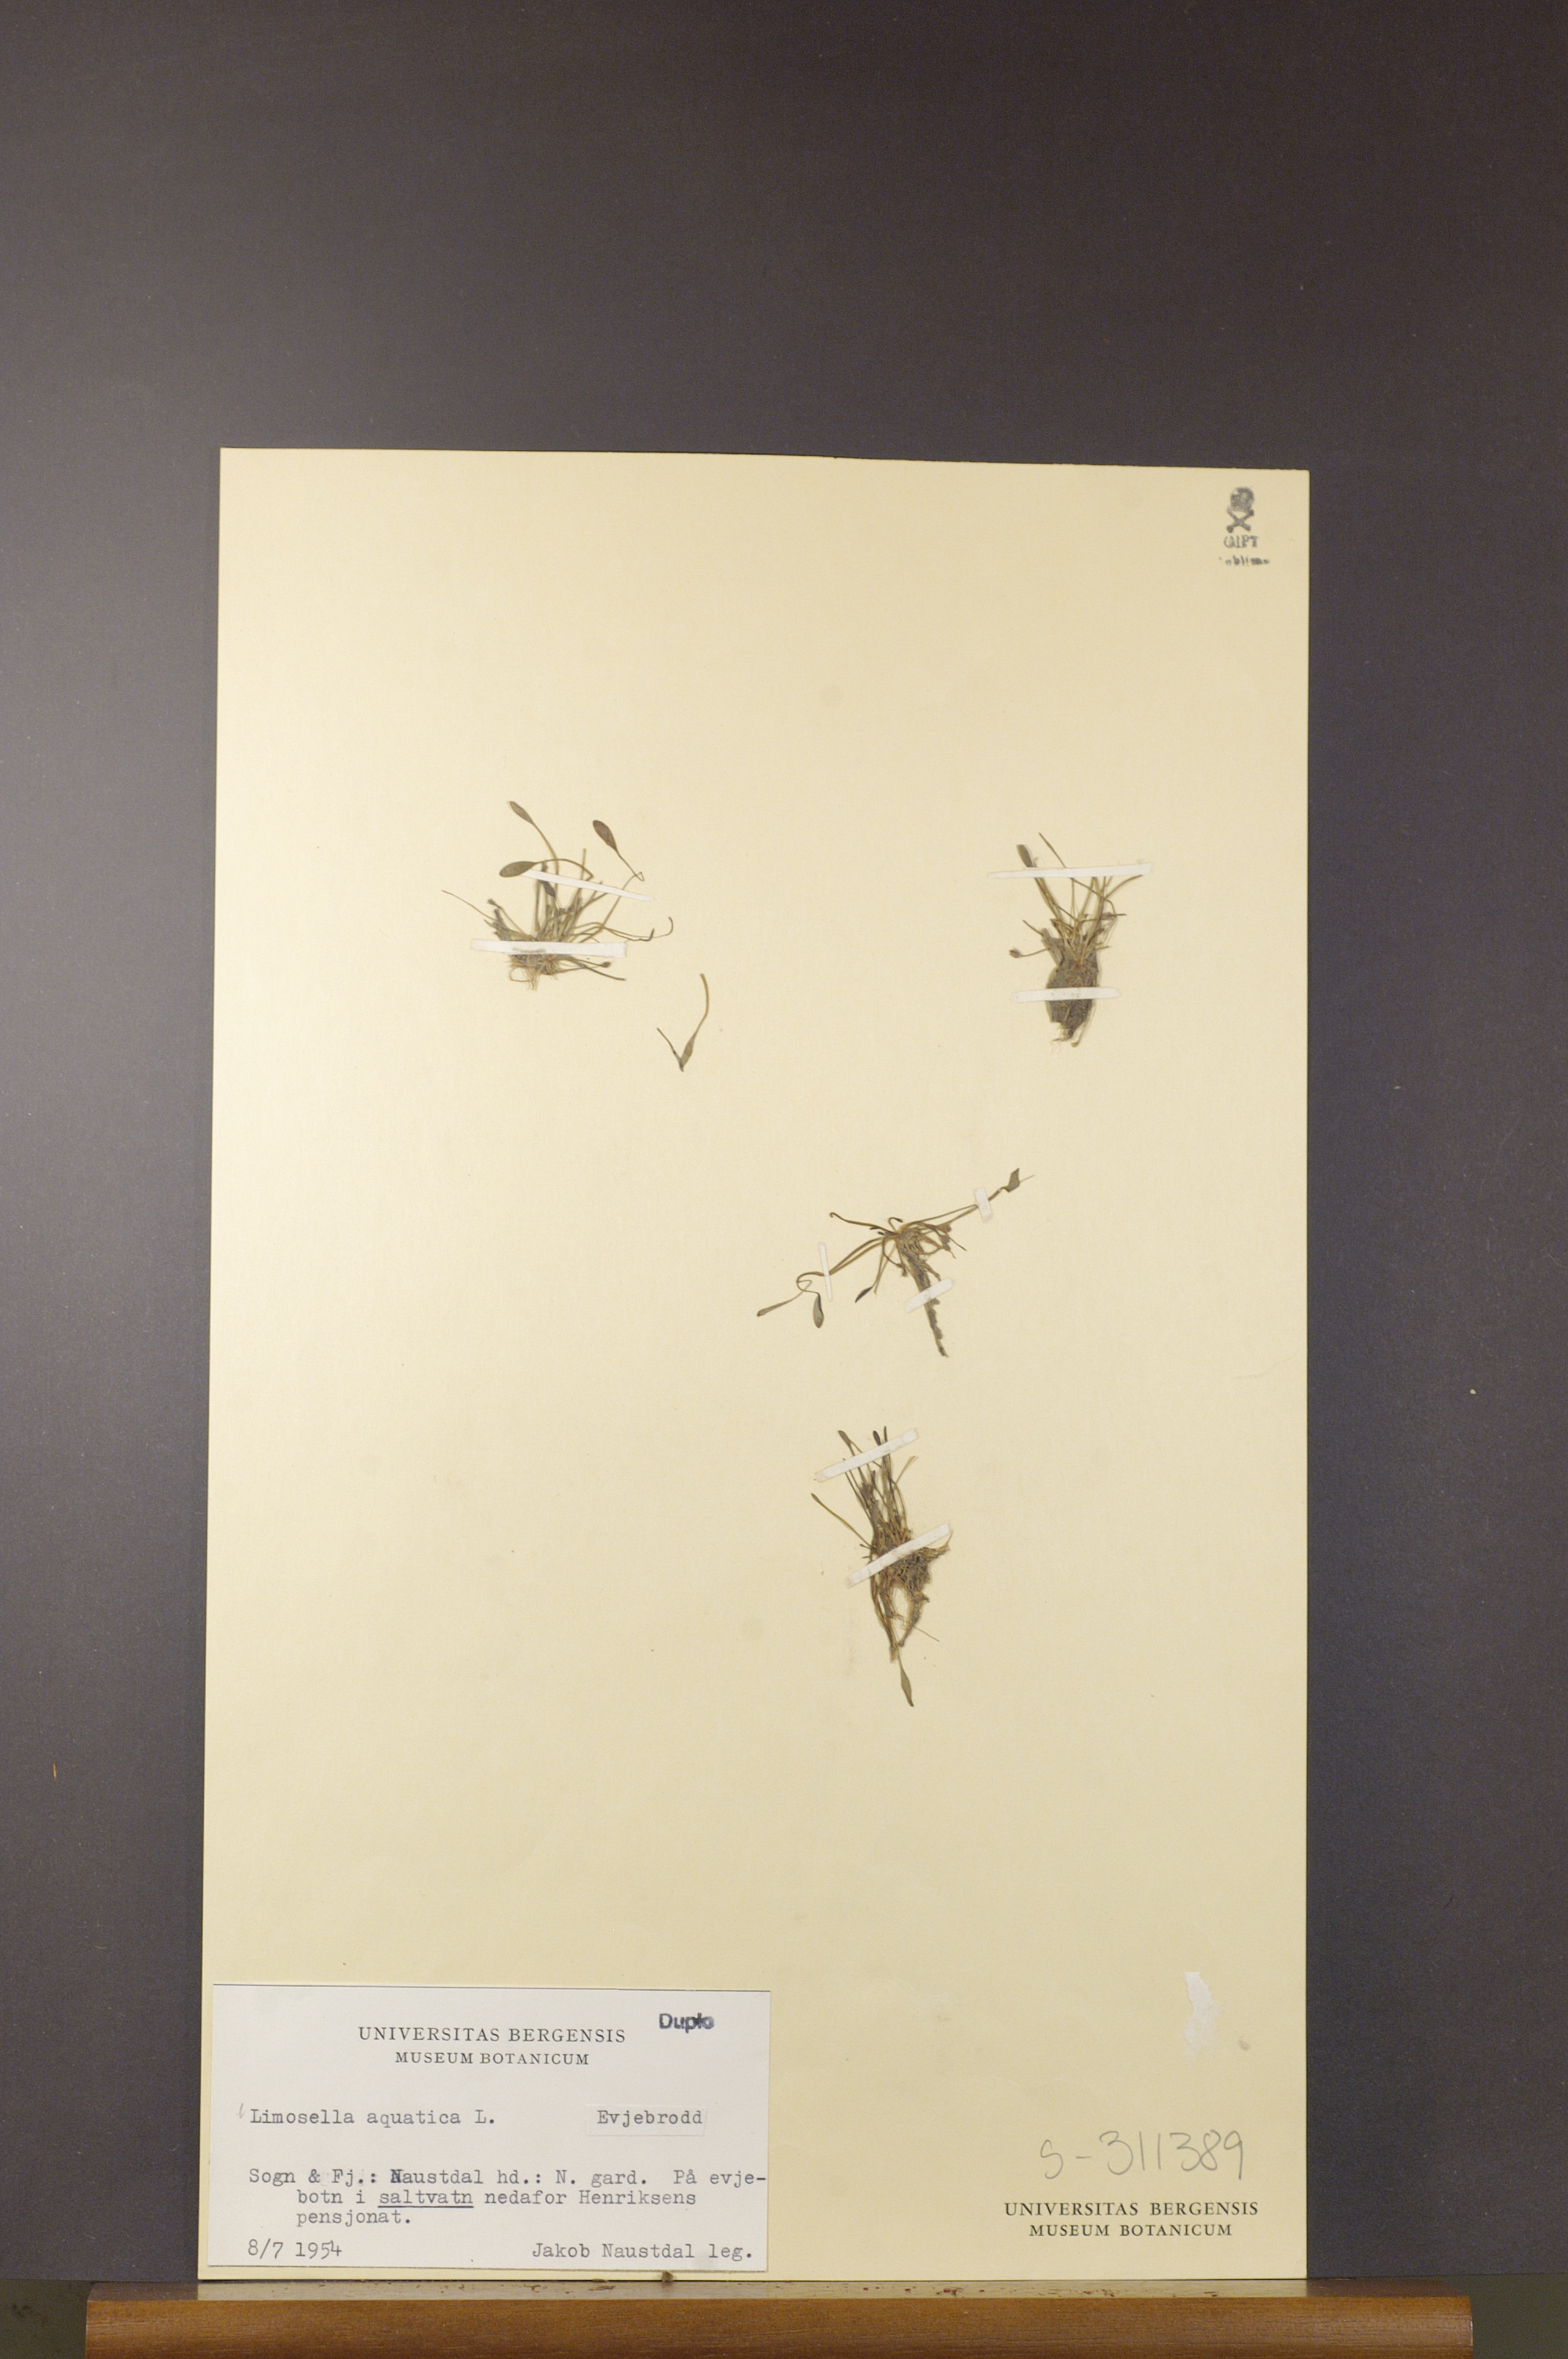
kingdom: Plantae
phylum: Tracheophyta
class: Magnoliopsida
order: Lamiales
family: Scrophulariaceae
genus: Limosella
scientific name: Limosella aquatica
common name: Mudwort
